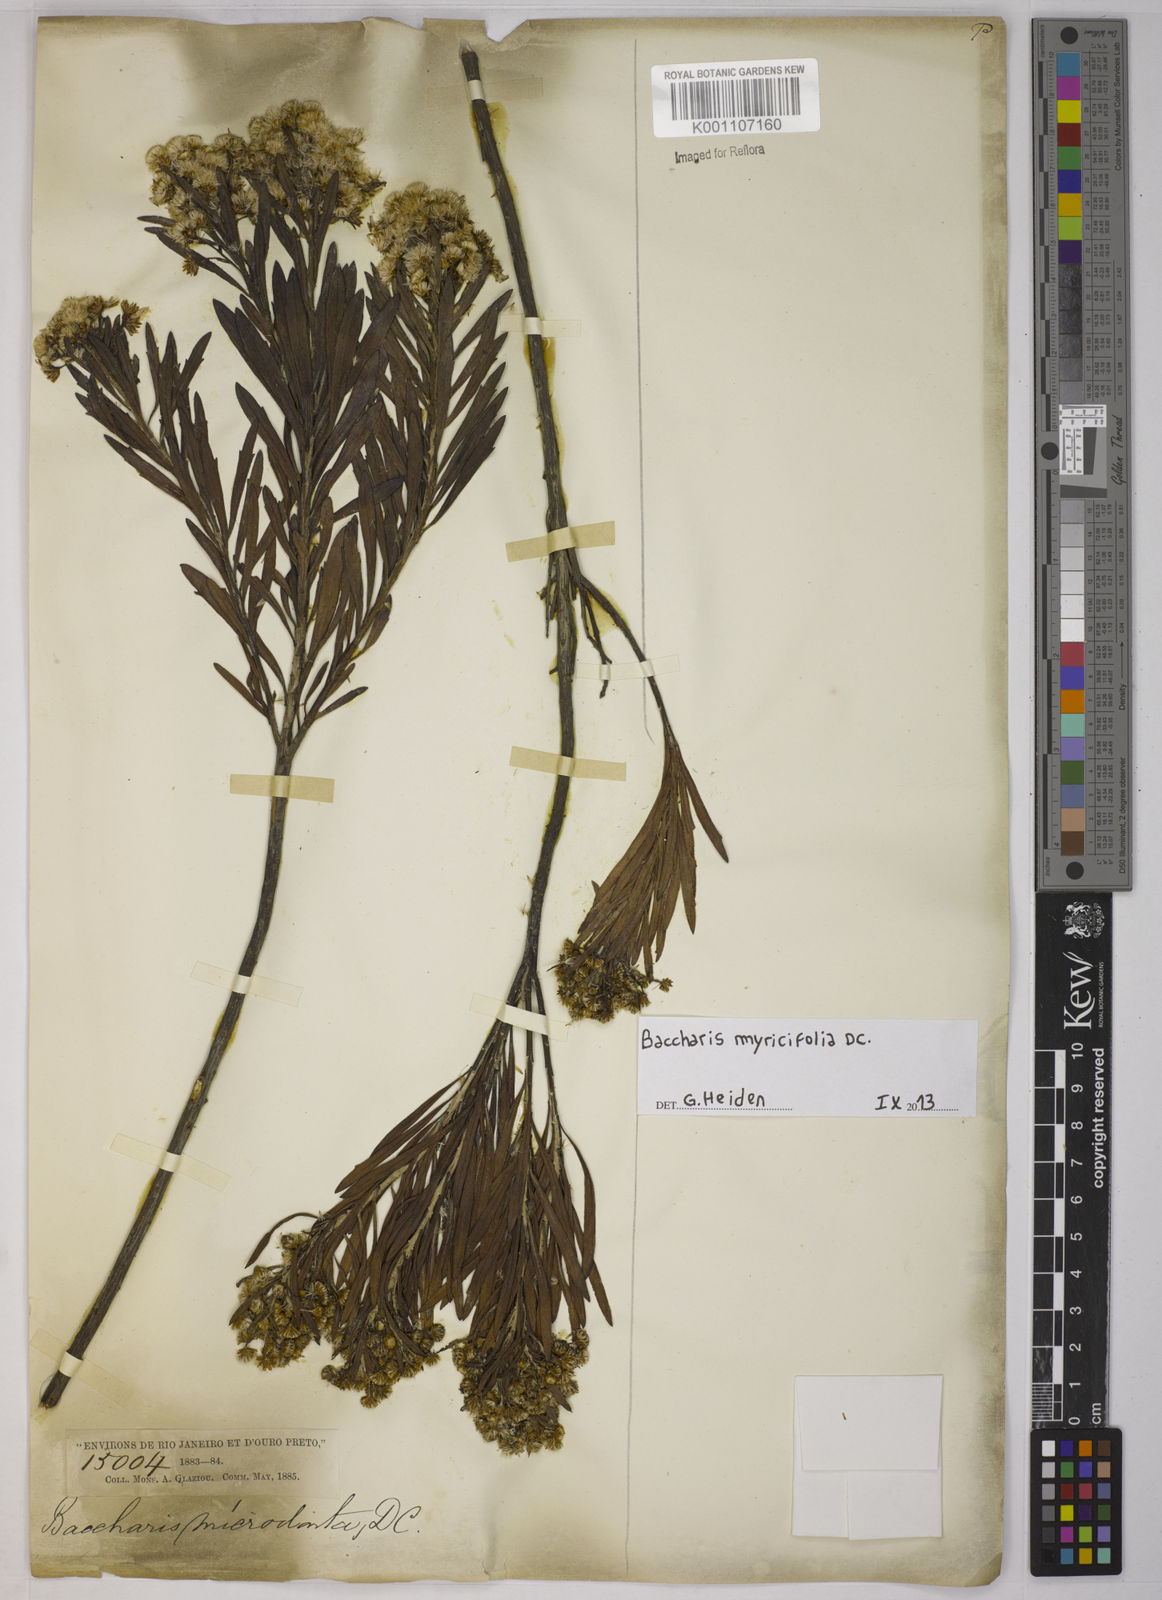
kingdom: Plantae
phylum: Tracheophyta
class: Magnoliopsida
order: Asterales
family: Asteraceae
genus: Baccharis
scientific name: Baccharis myricifolia
